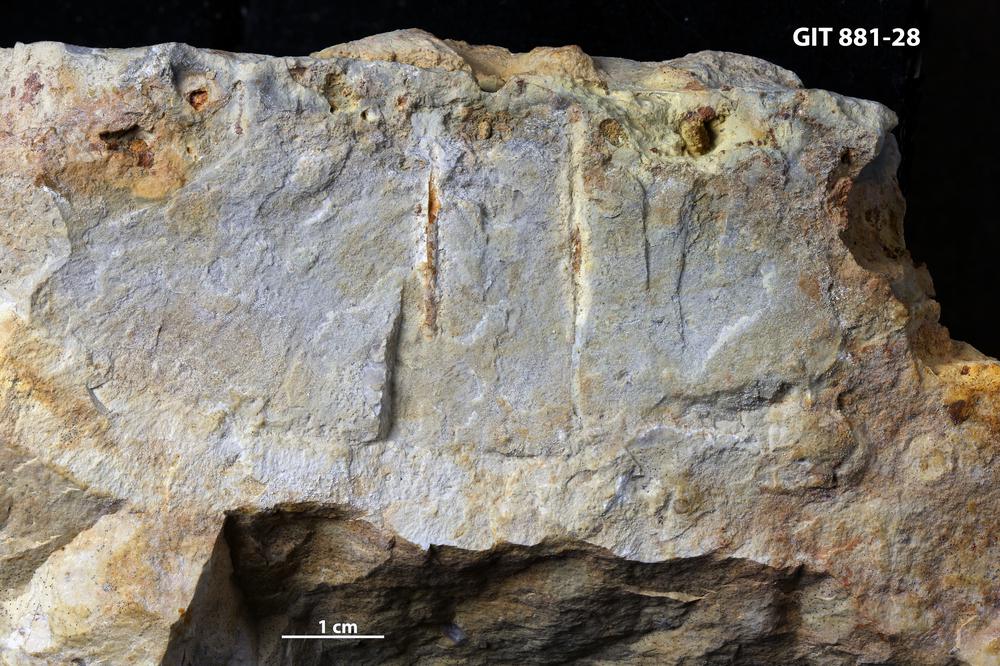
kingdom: Animalia
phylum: Sipuncula
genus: Trypanites
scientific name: Trypanites
